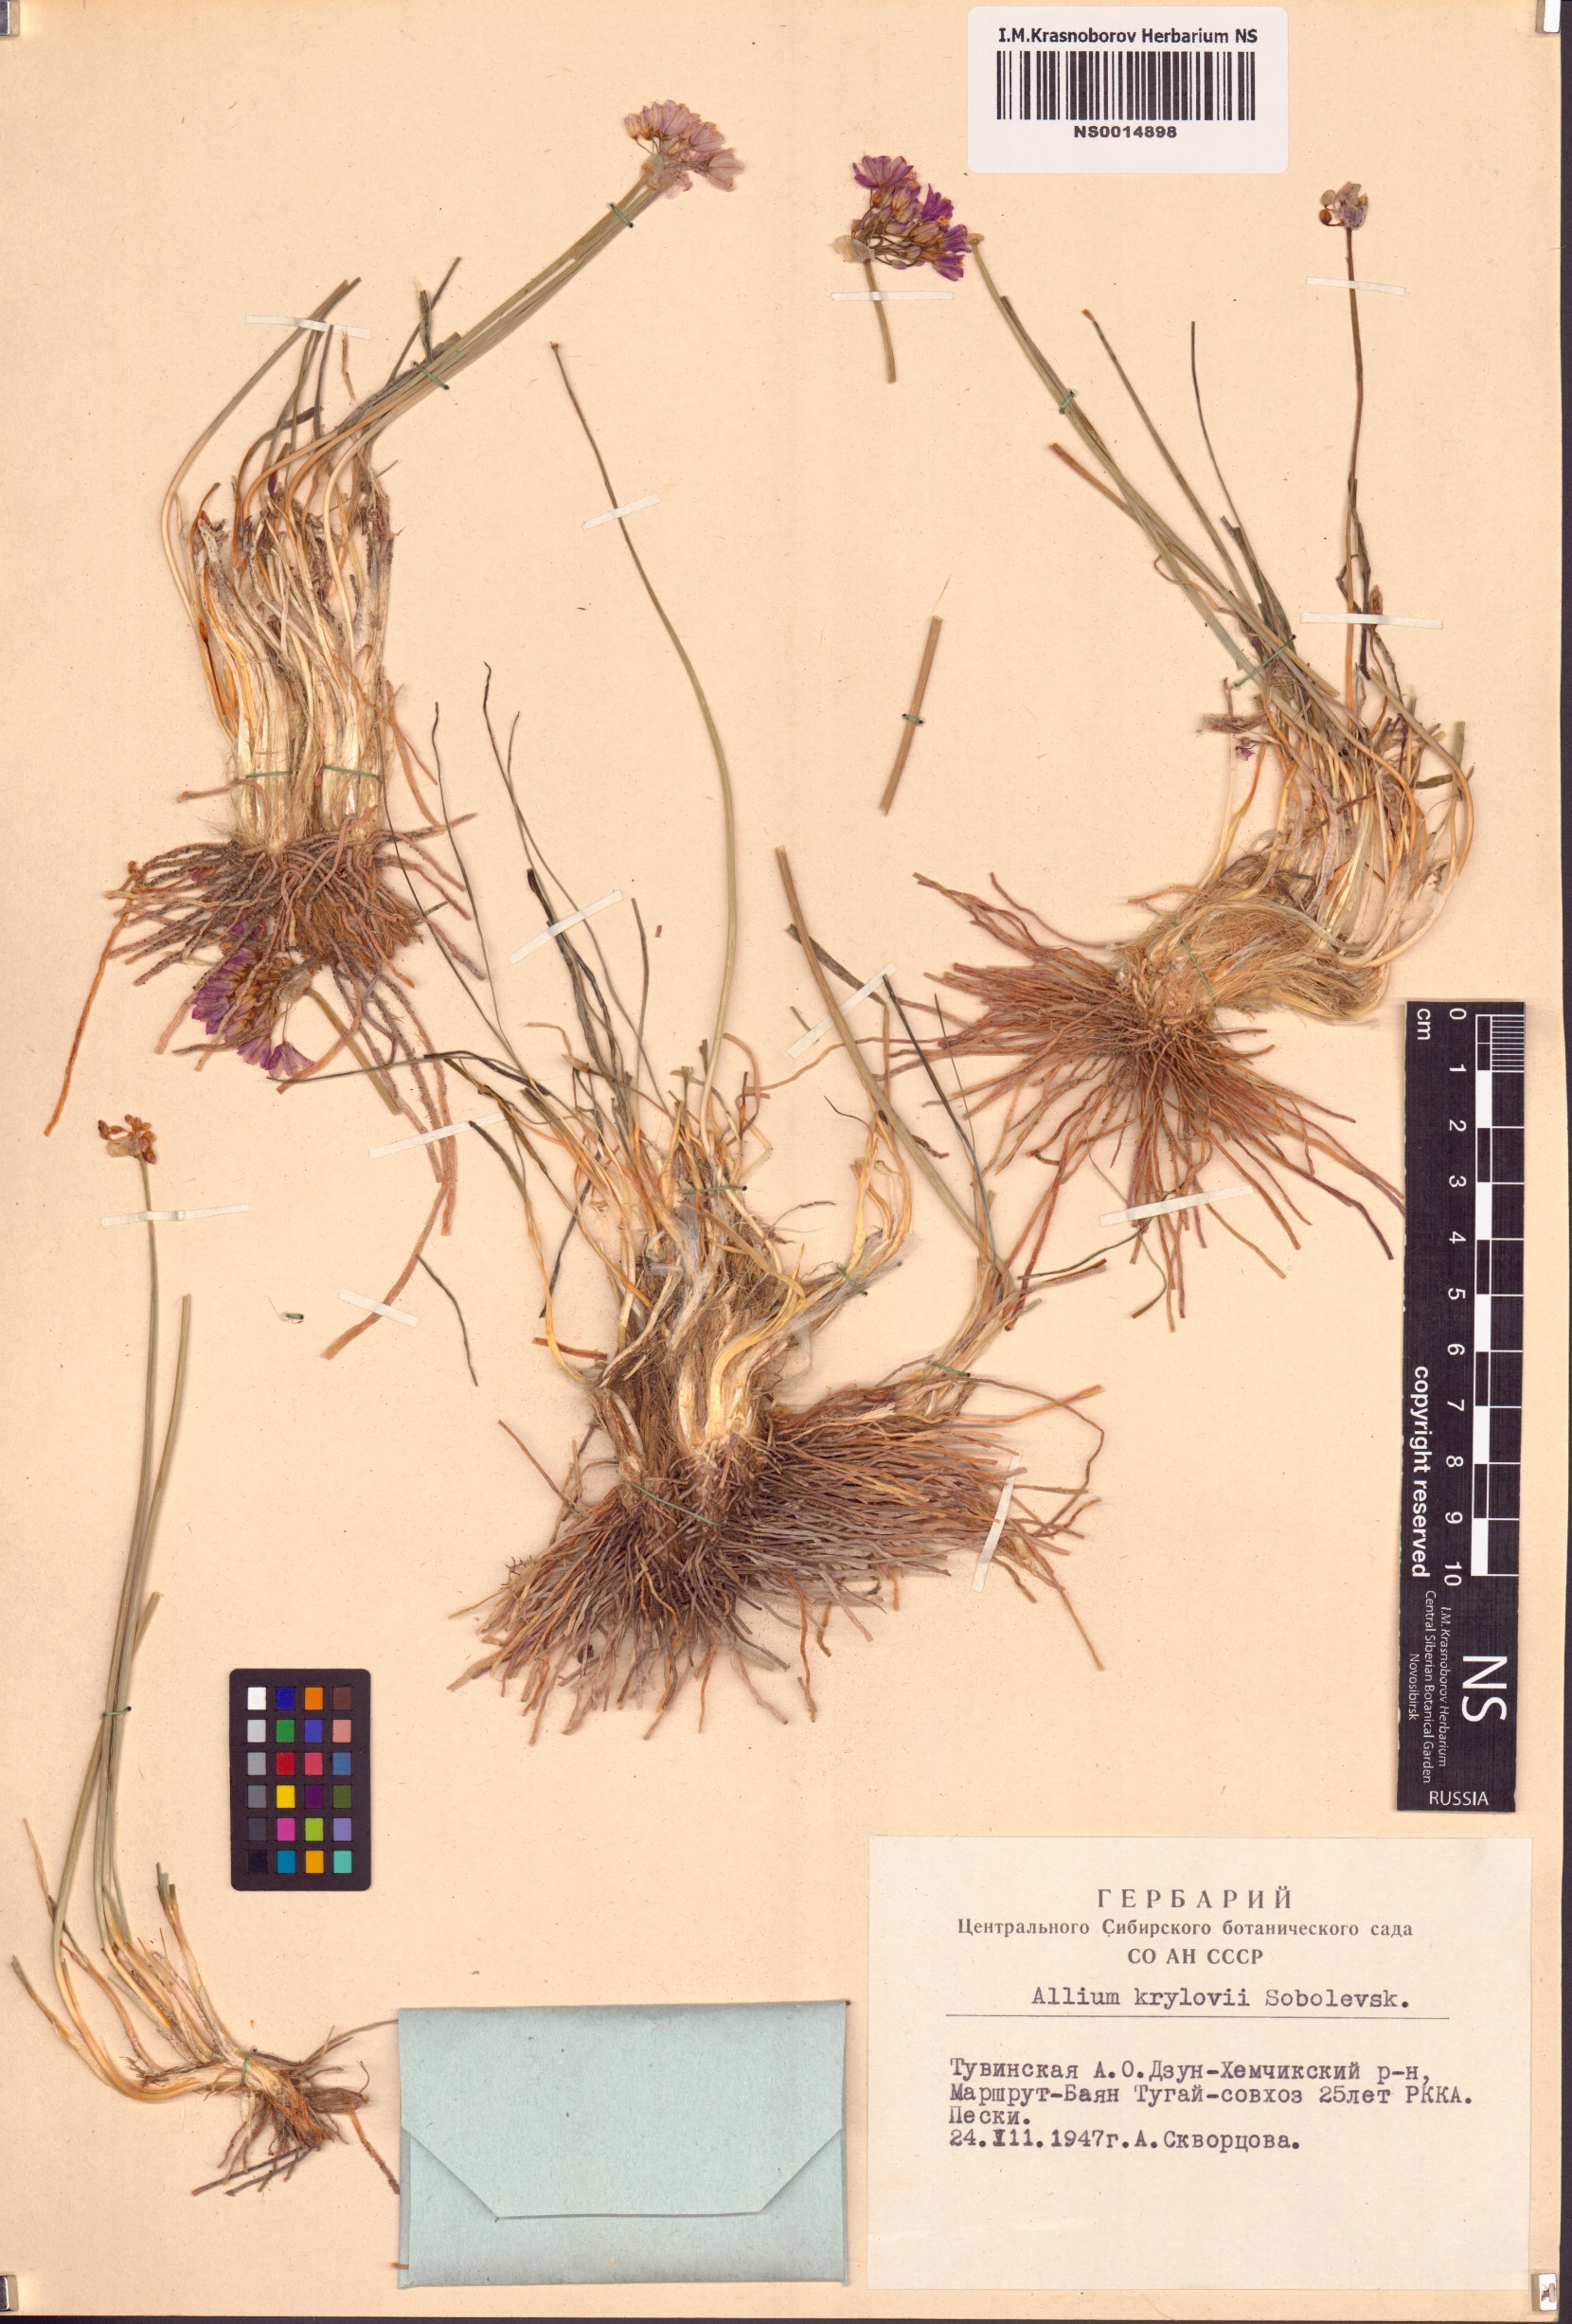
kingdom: Plantae
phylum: Tracheophyta
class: Liliopsida
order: Asparagales
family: Amaryllidaceae
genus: Allium
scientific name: Allium mongolicum
